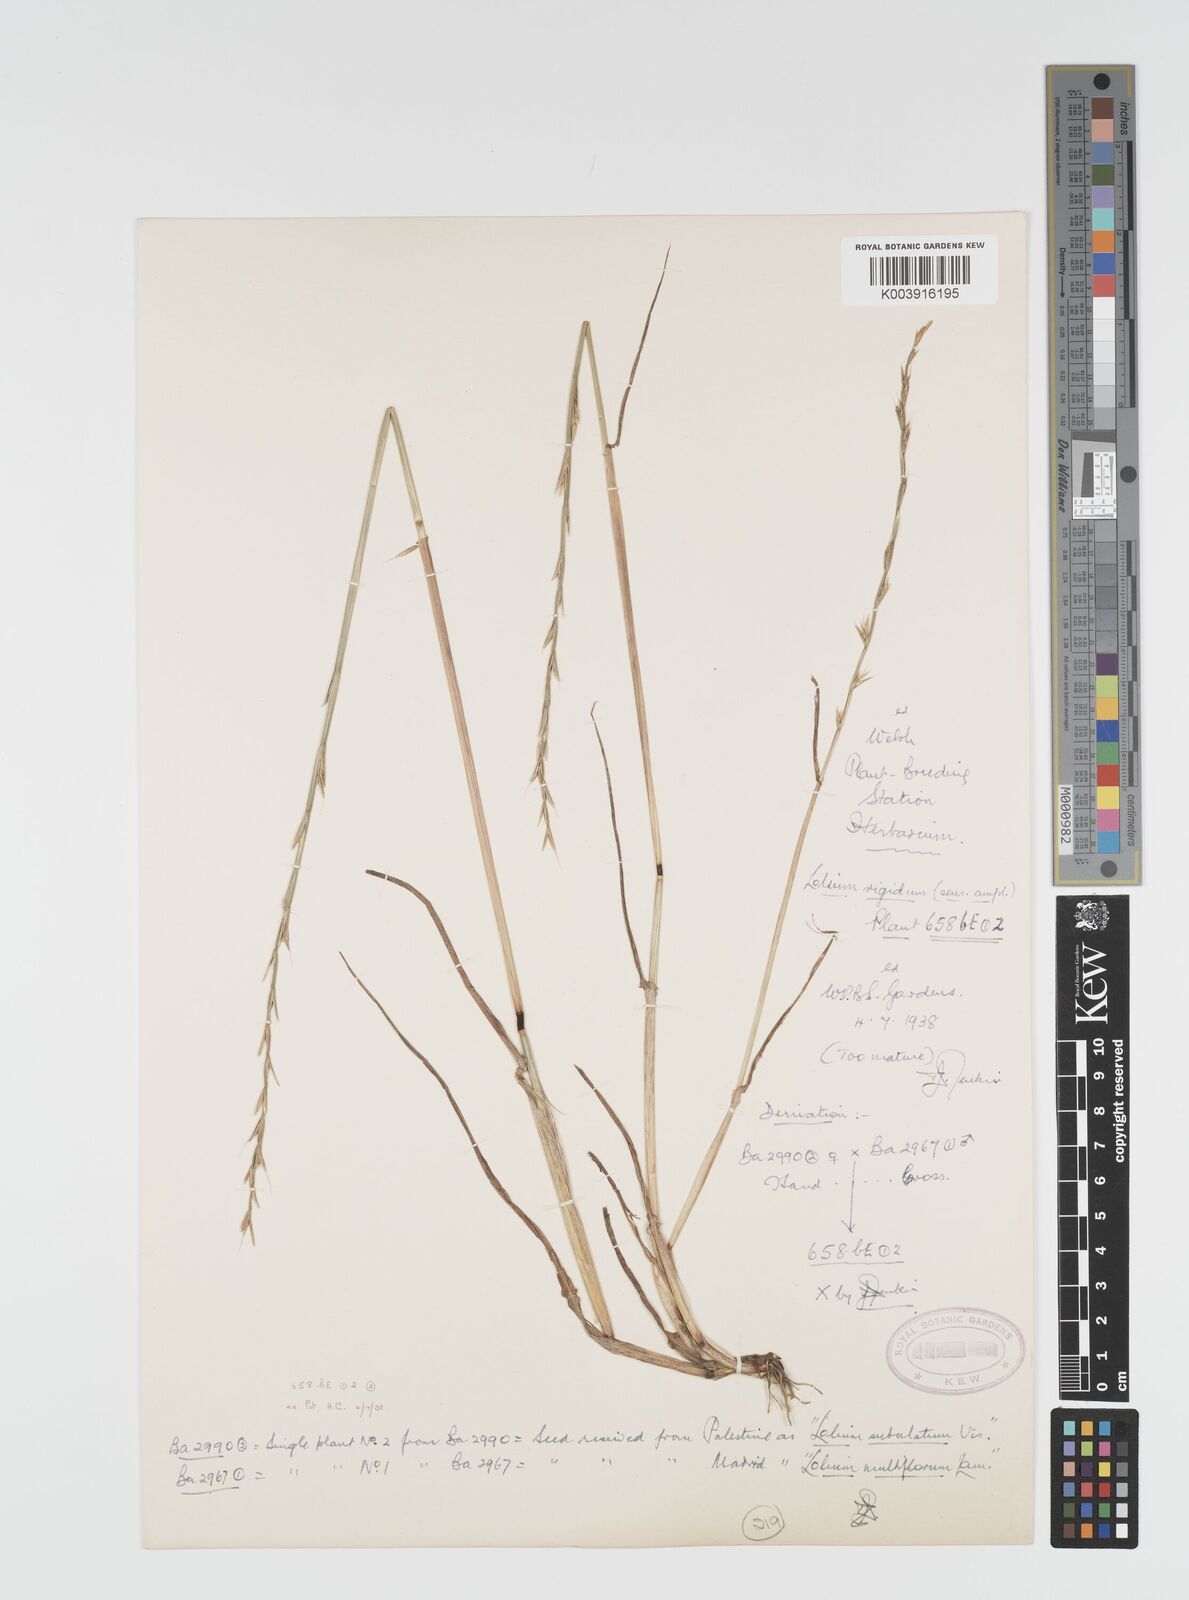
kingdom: Plantae
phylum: Tracheophyta
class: Liliopsida
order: Poales
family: Poaceae
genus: Lolium
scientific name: Lolium rigidum
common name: Wimmera ryegrass
